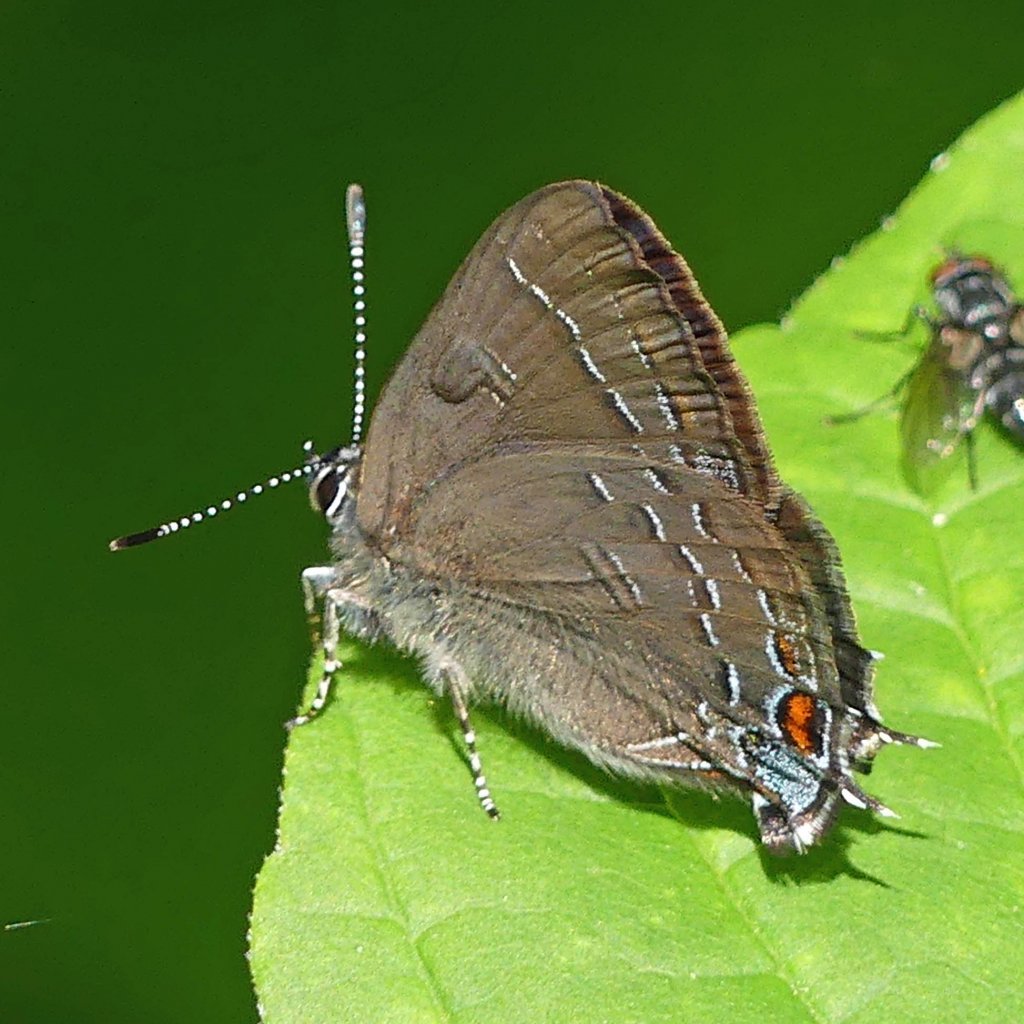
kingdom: Animalia
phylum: Arthropoda
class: Insecta
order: Lepidoptera
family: Lycaenidae
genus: Satyrium
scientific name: Satyrium calanus
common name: Banded Hairstreak
